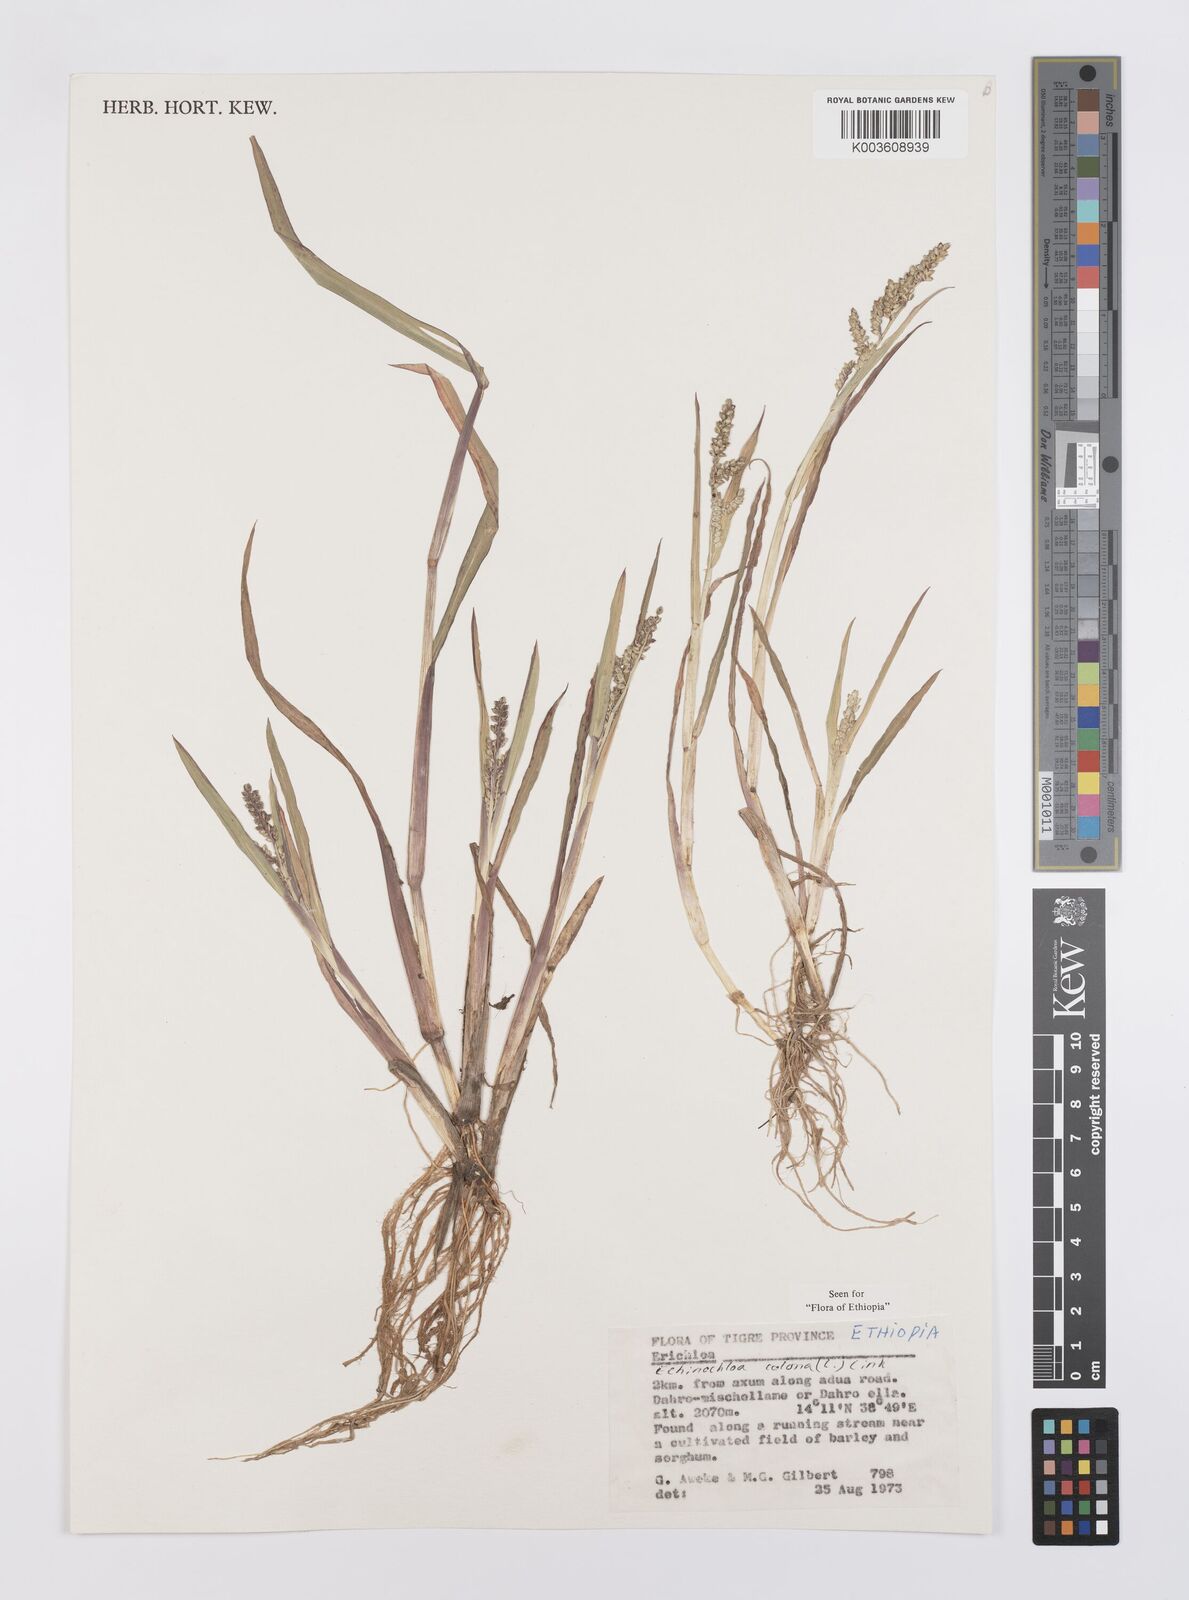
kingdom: Plantae
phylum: Tracheophyta
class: Liliopsida
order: Poales
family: Poaceae
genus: Echinochloa
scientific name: Echinochloa colonum
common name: Jungle rice
